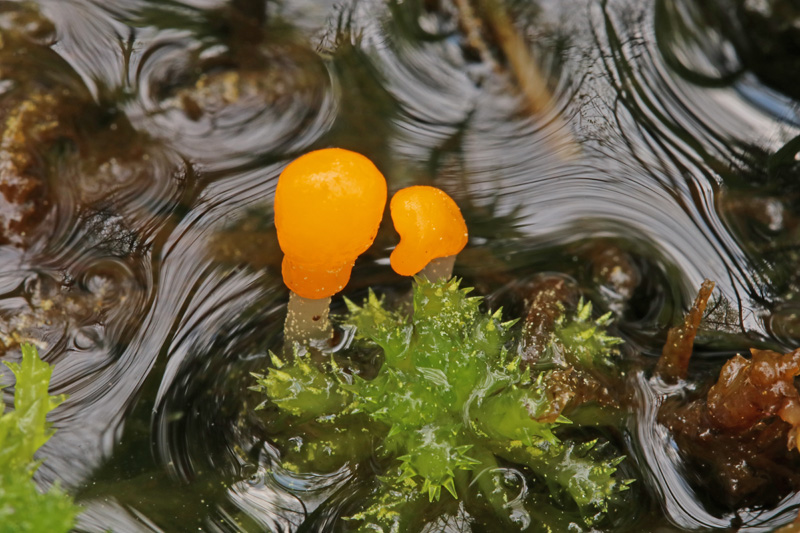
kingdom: Fungi
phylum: Ascomycota
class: Leotiomycetes
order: Helotiales
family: Cenangiaceae
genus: Mitrula
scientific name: Mitrula paludosa
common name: gul nøkketunge
